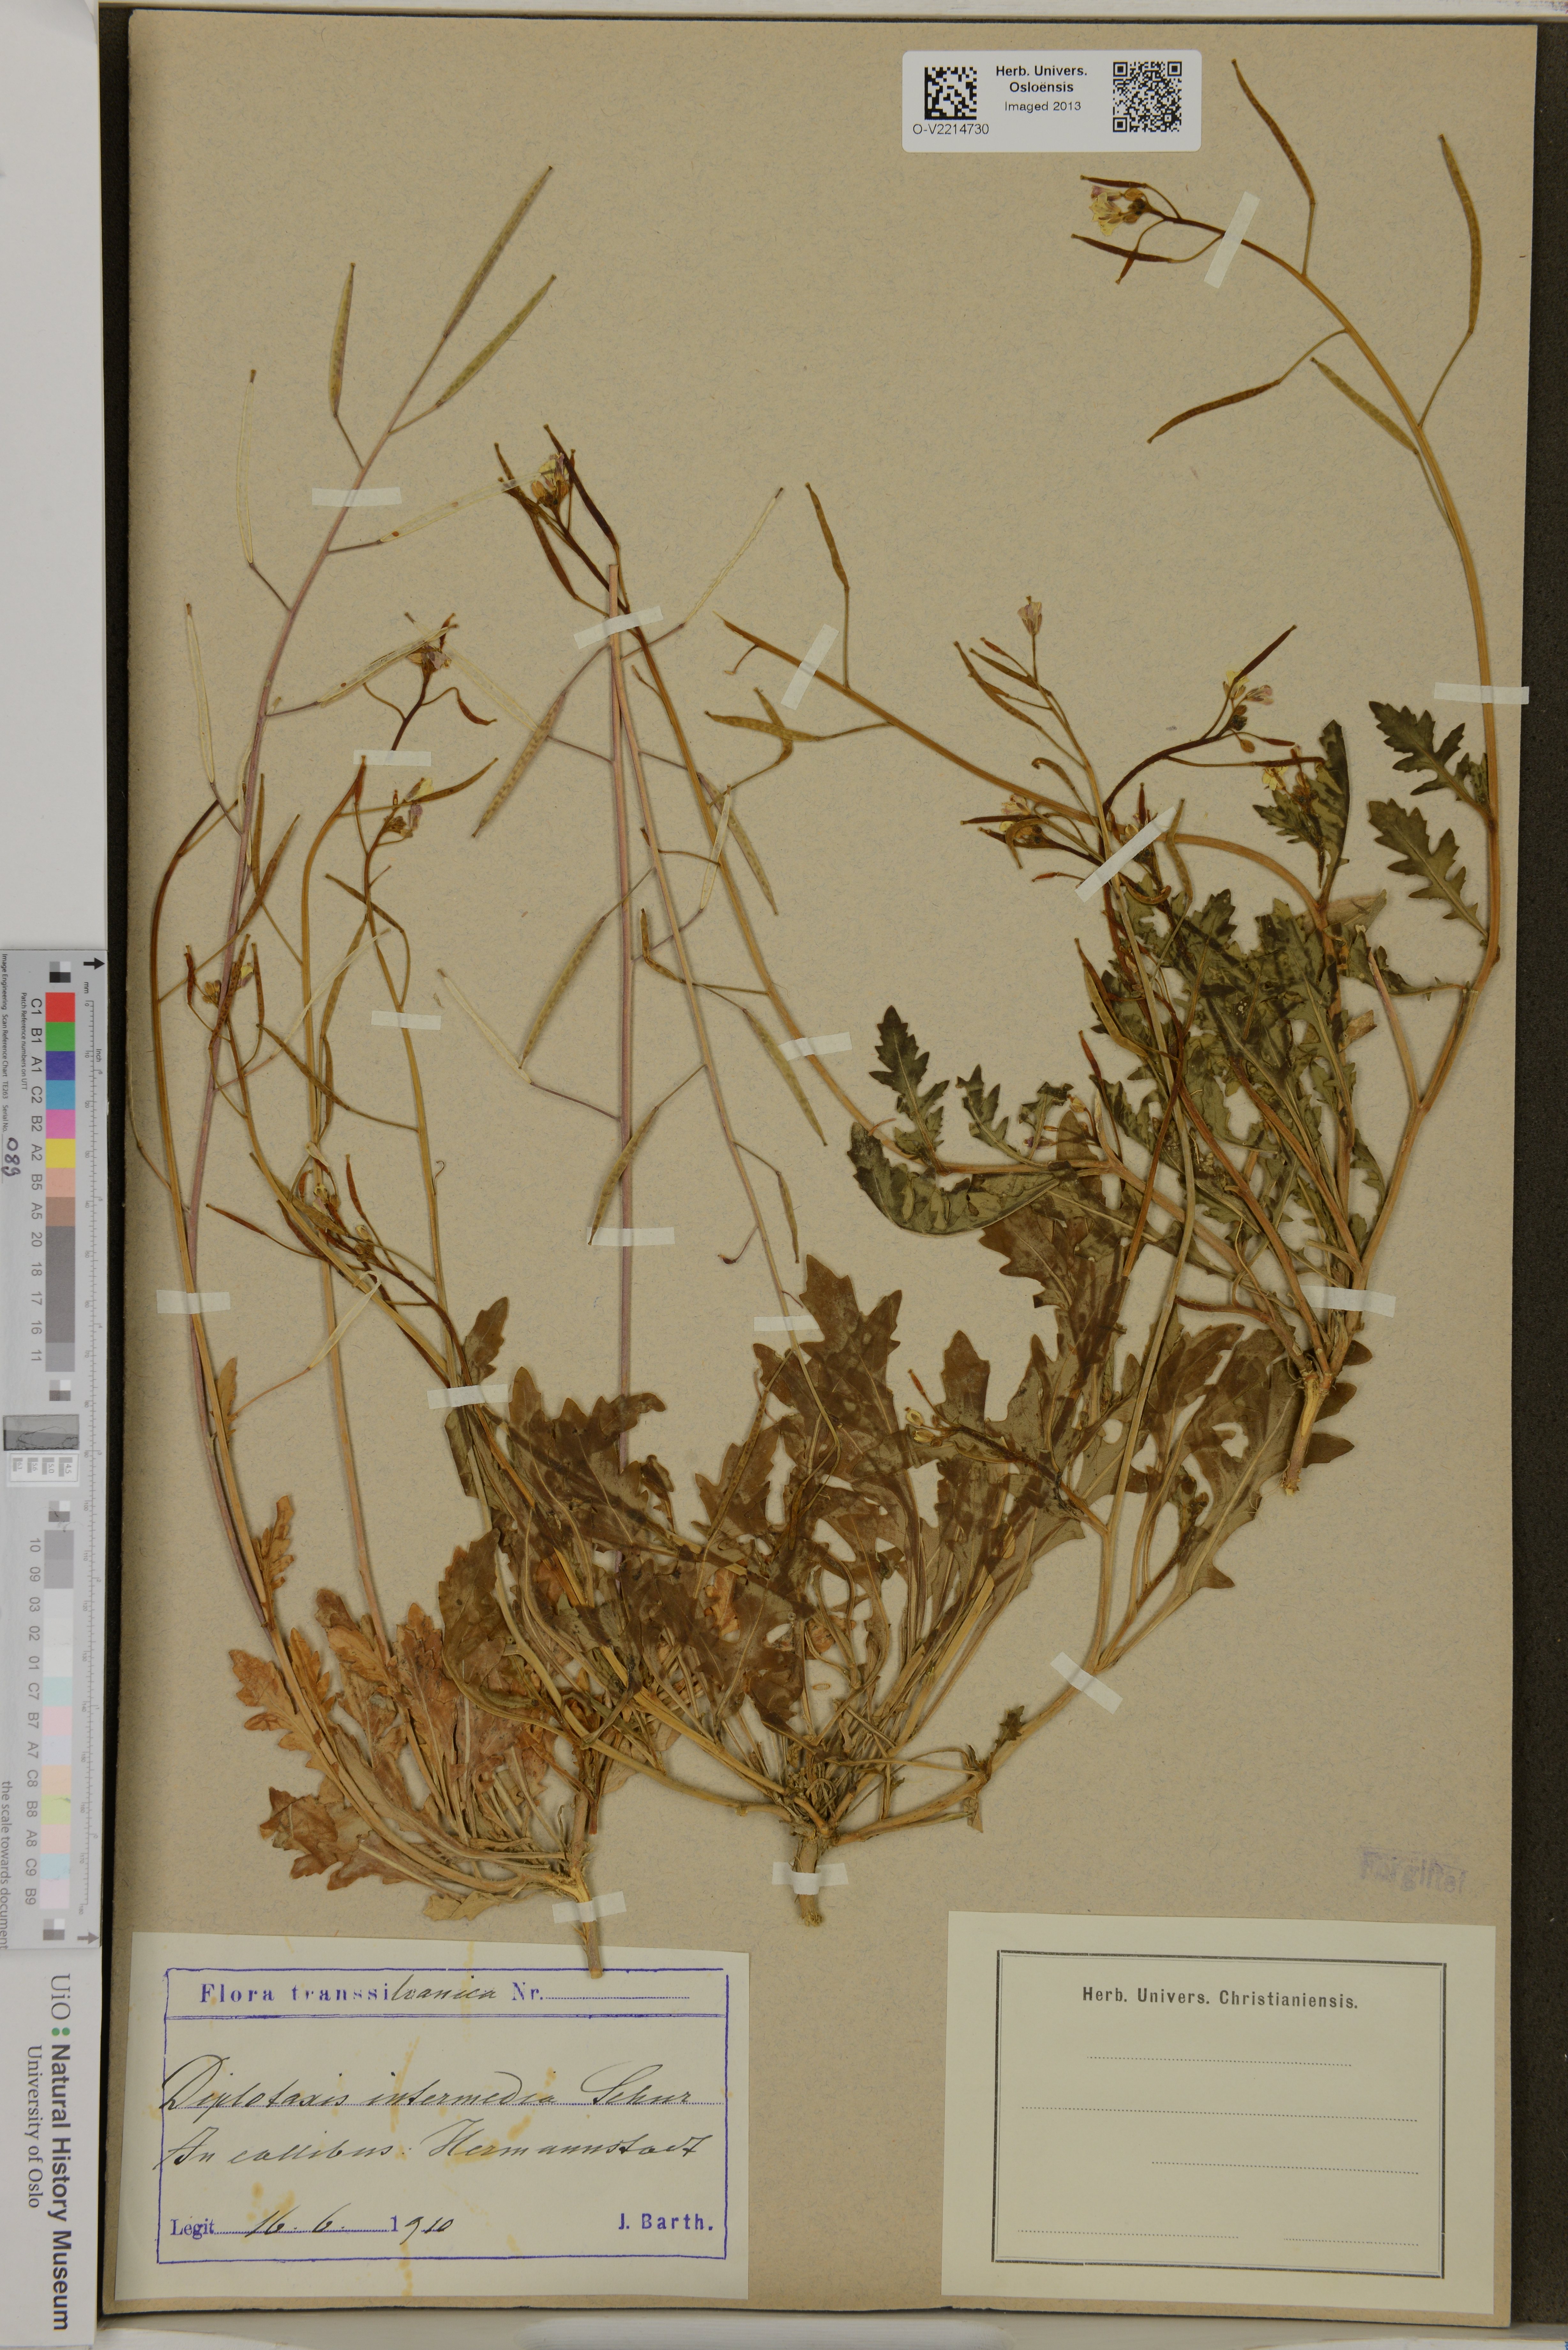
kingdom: Plantae
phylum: Tracheophyta
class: Magnoliopsida
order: Brassicales
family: Brassicaceae
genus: Diplotaxis
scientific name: Diplotaxis muralis
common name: Annual wall-rocket
